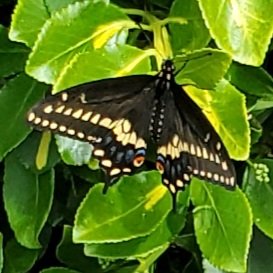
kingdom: Animalia
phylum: Arthropoda
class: Insecta
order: Lepidoptera
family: Papilionidae
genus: Papilio
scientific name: Papilio polyxenes
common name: Black Swallowtail
